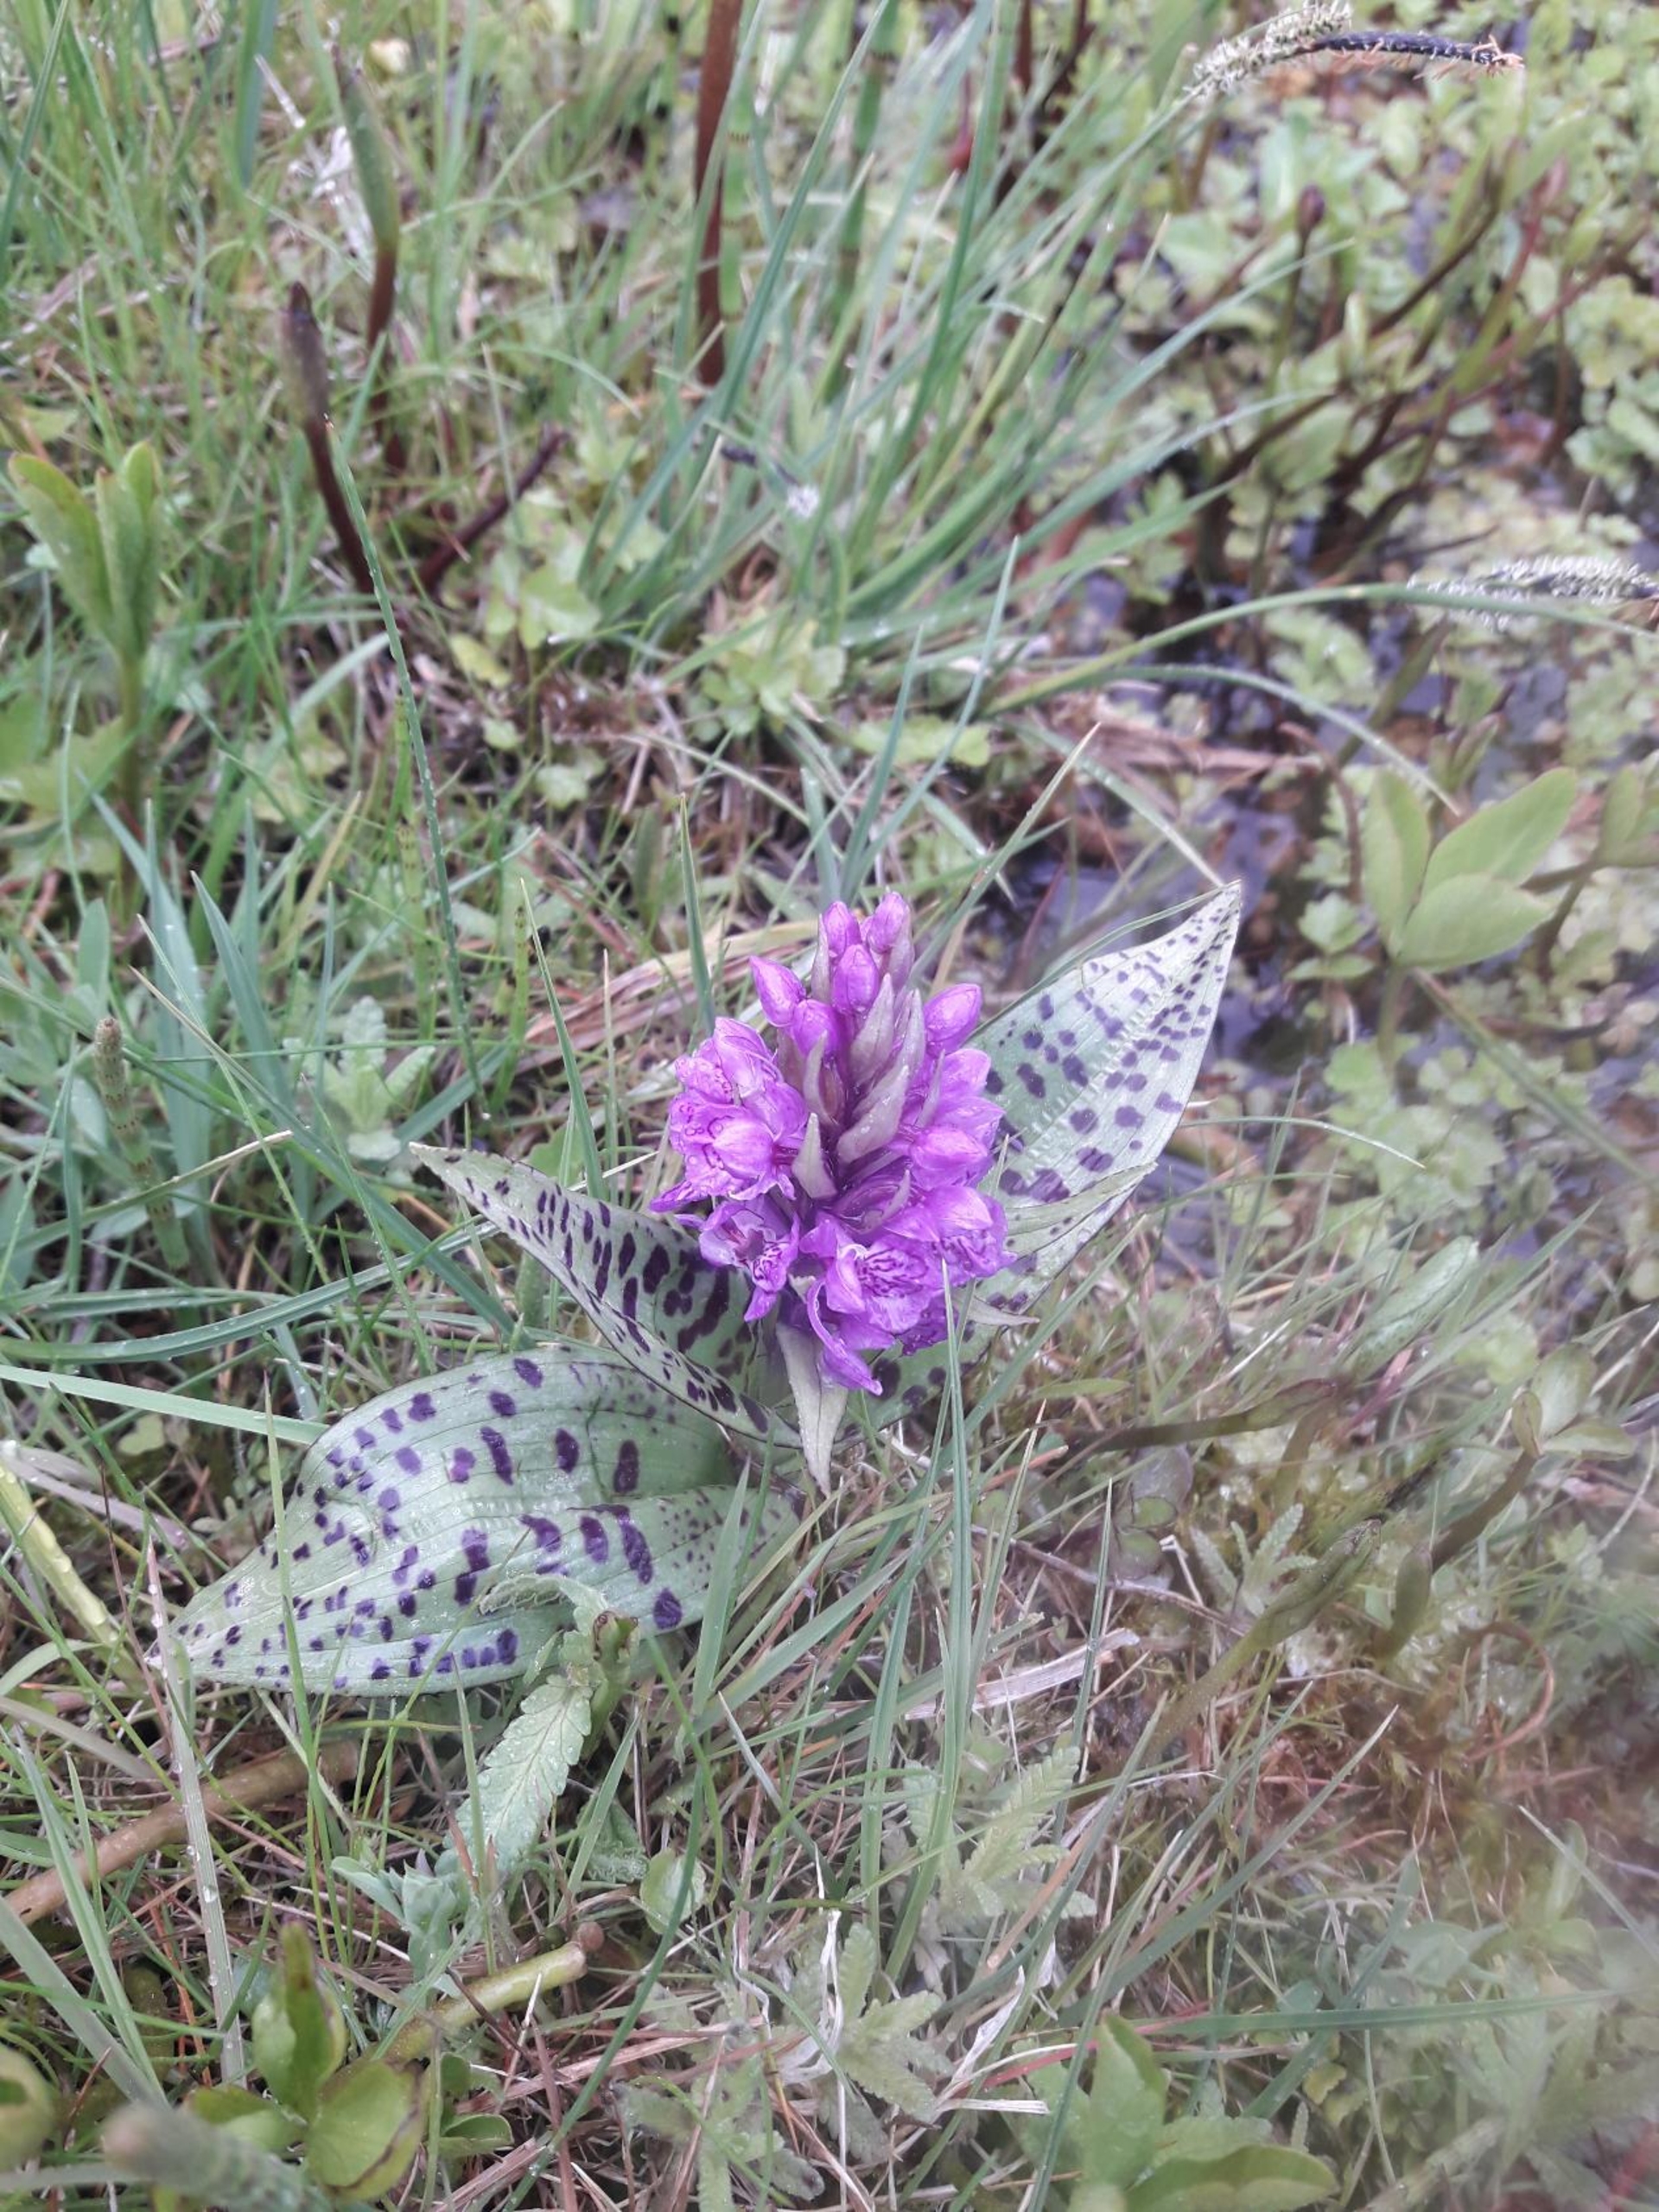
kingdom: Plantae
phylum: Tracheophyta
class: Liliopsida
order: Asparagales
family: Orchidaceae
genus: Dactylorhiza
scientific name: Dactylorhiza majalis
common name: Maj-gøgeurt (underart)
